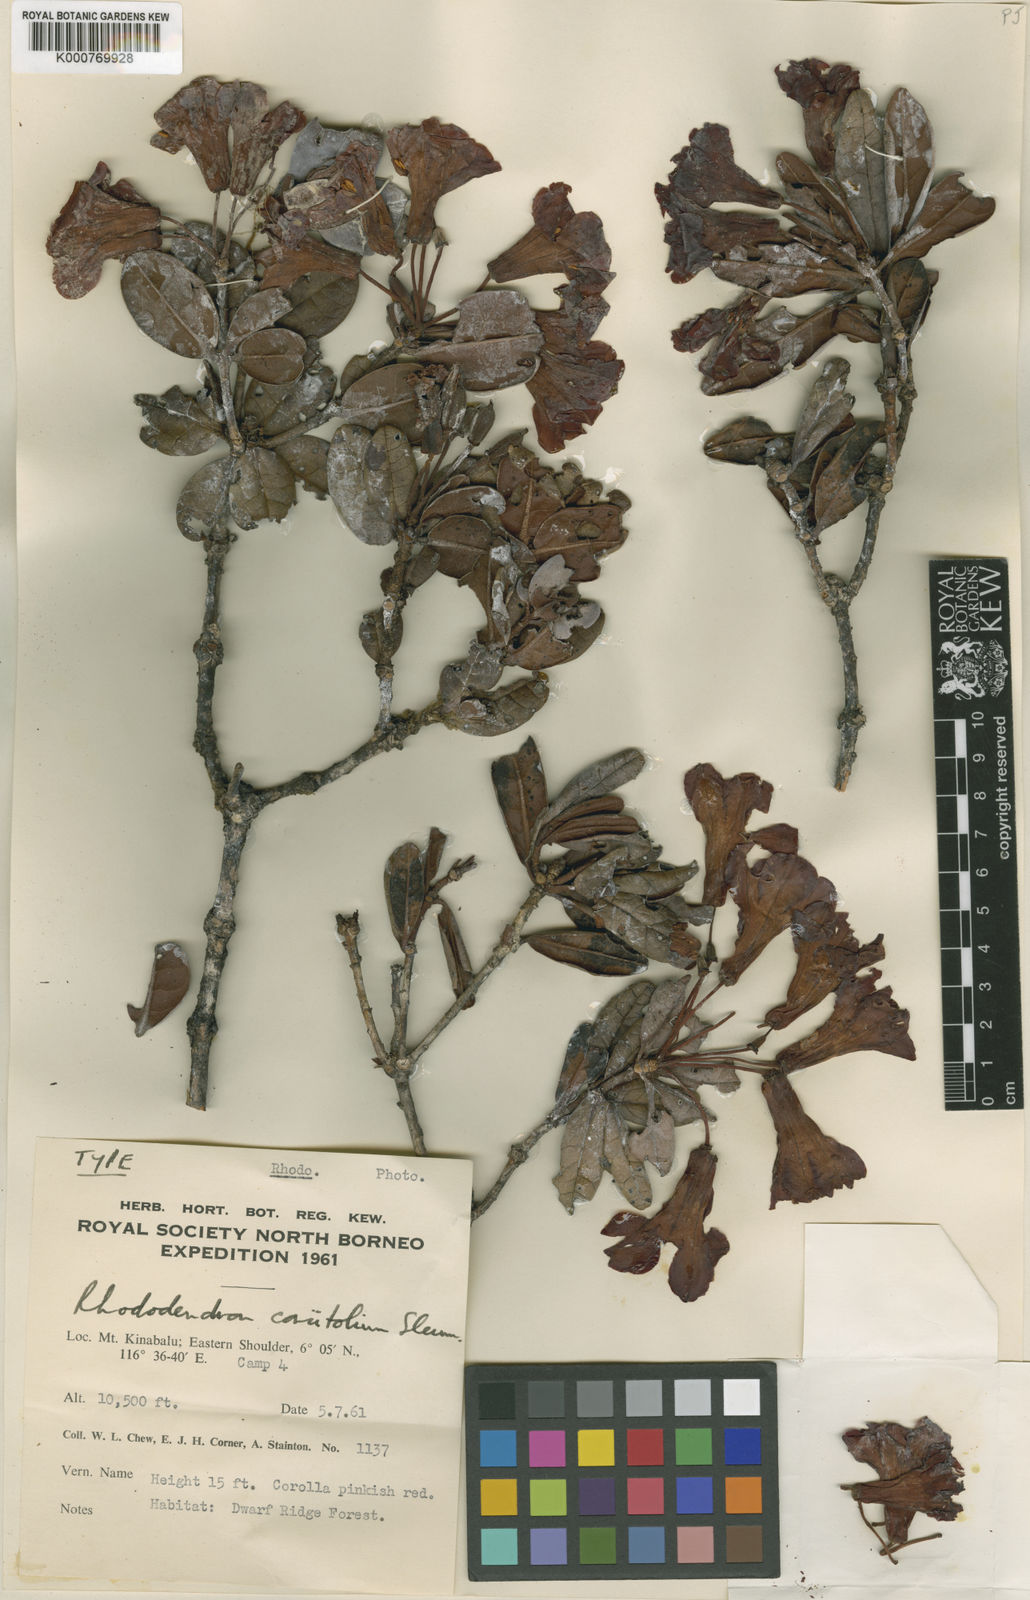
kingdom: Plantae
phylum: Tracheophyta
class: Magnoliopsida
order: Ericales
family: Ericaceae
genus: Rhododendron
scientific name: Rhododendron rugosum
